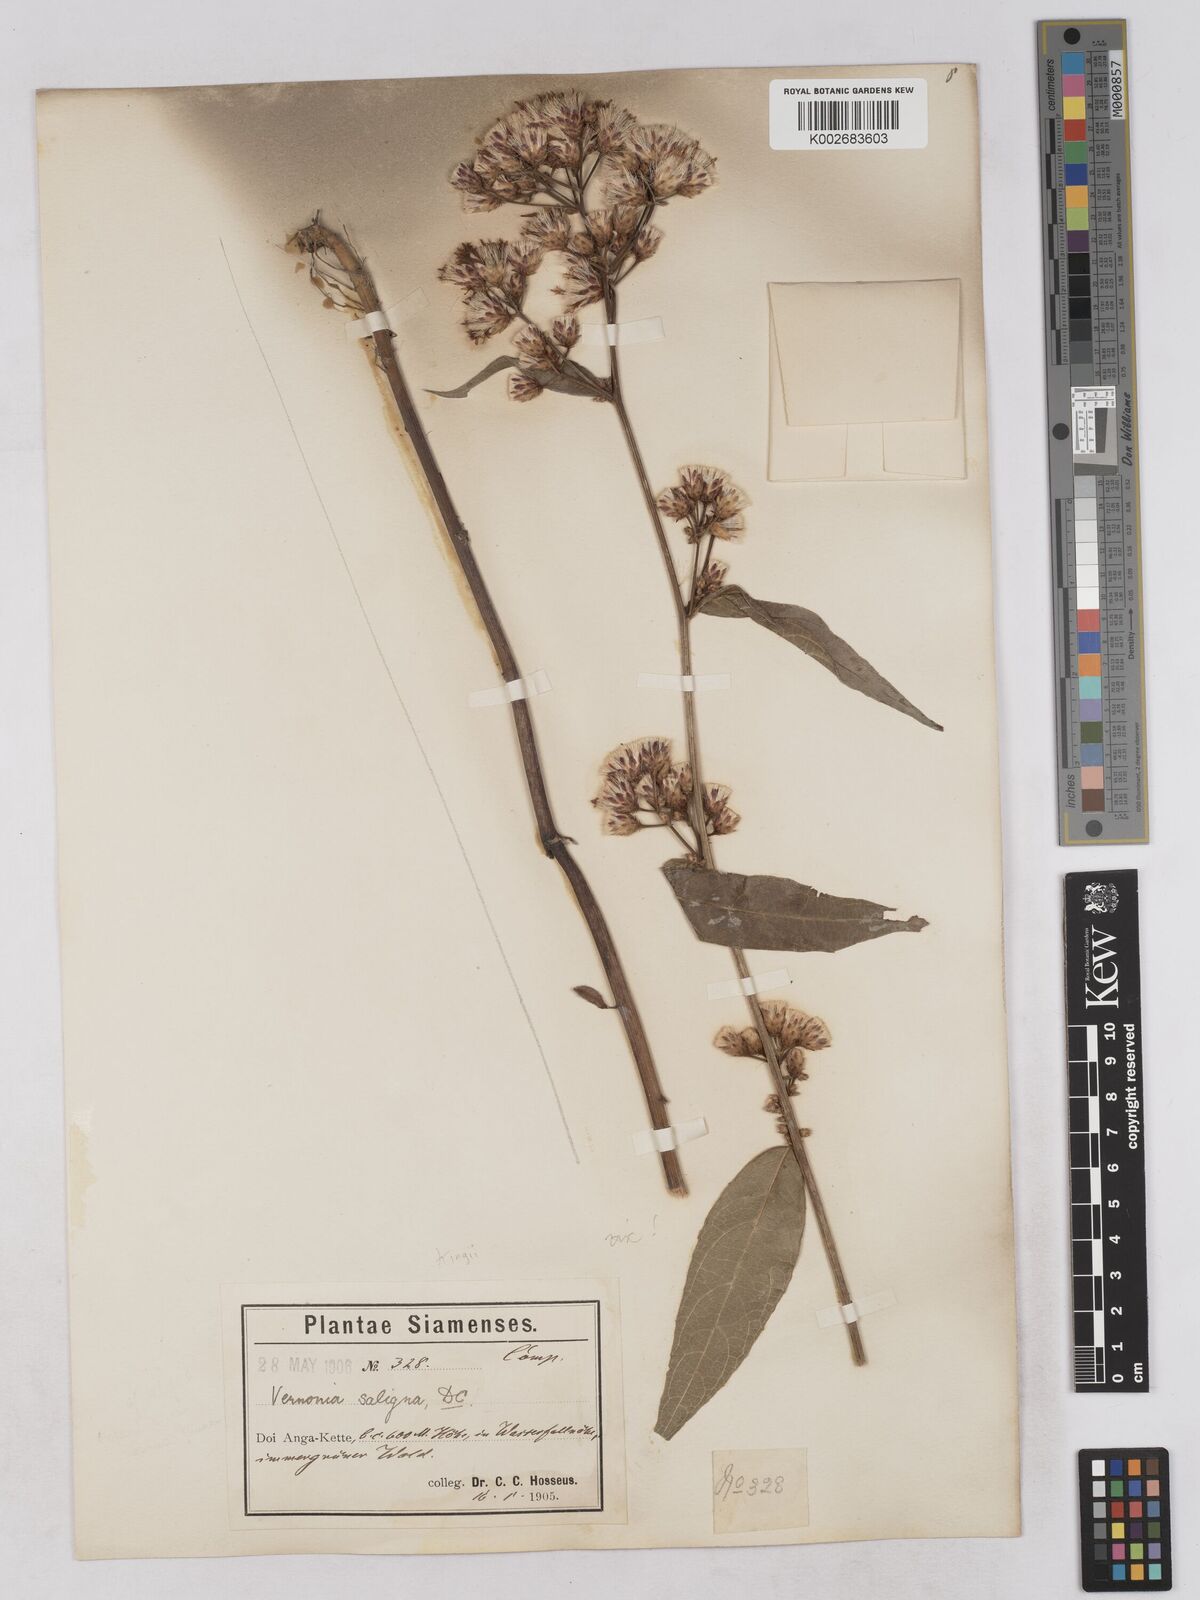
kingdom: Plantae
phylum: Tracheophyta
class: Magnoliopsida
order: Asterales
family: Asteraceae
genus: Acilepis
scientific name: Acilepis kingii
